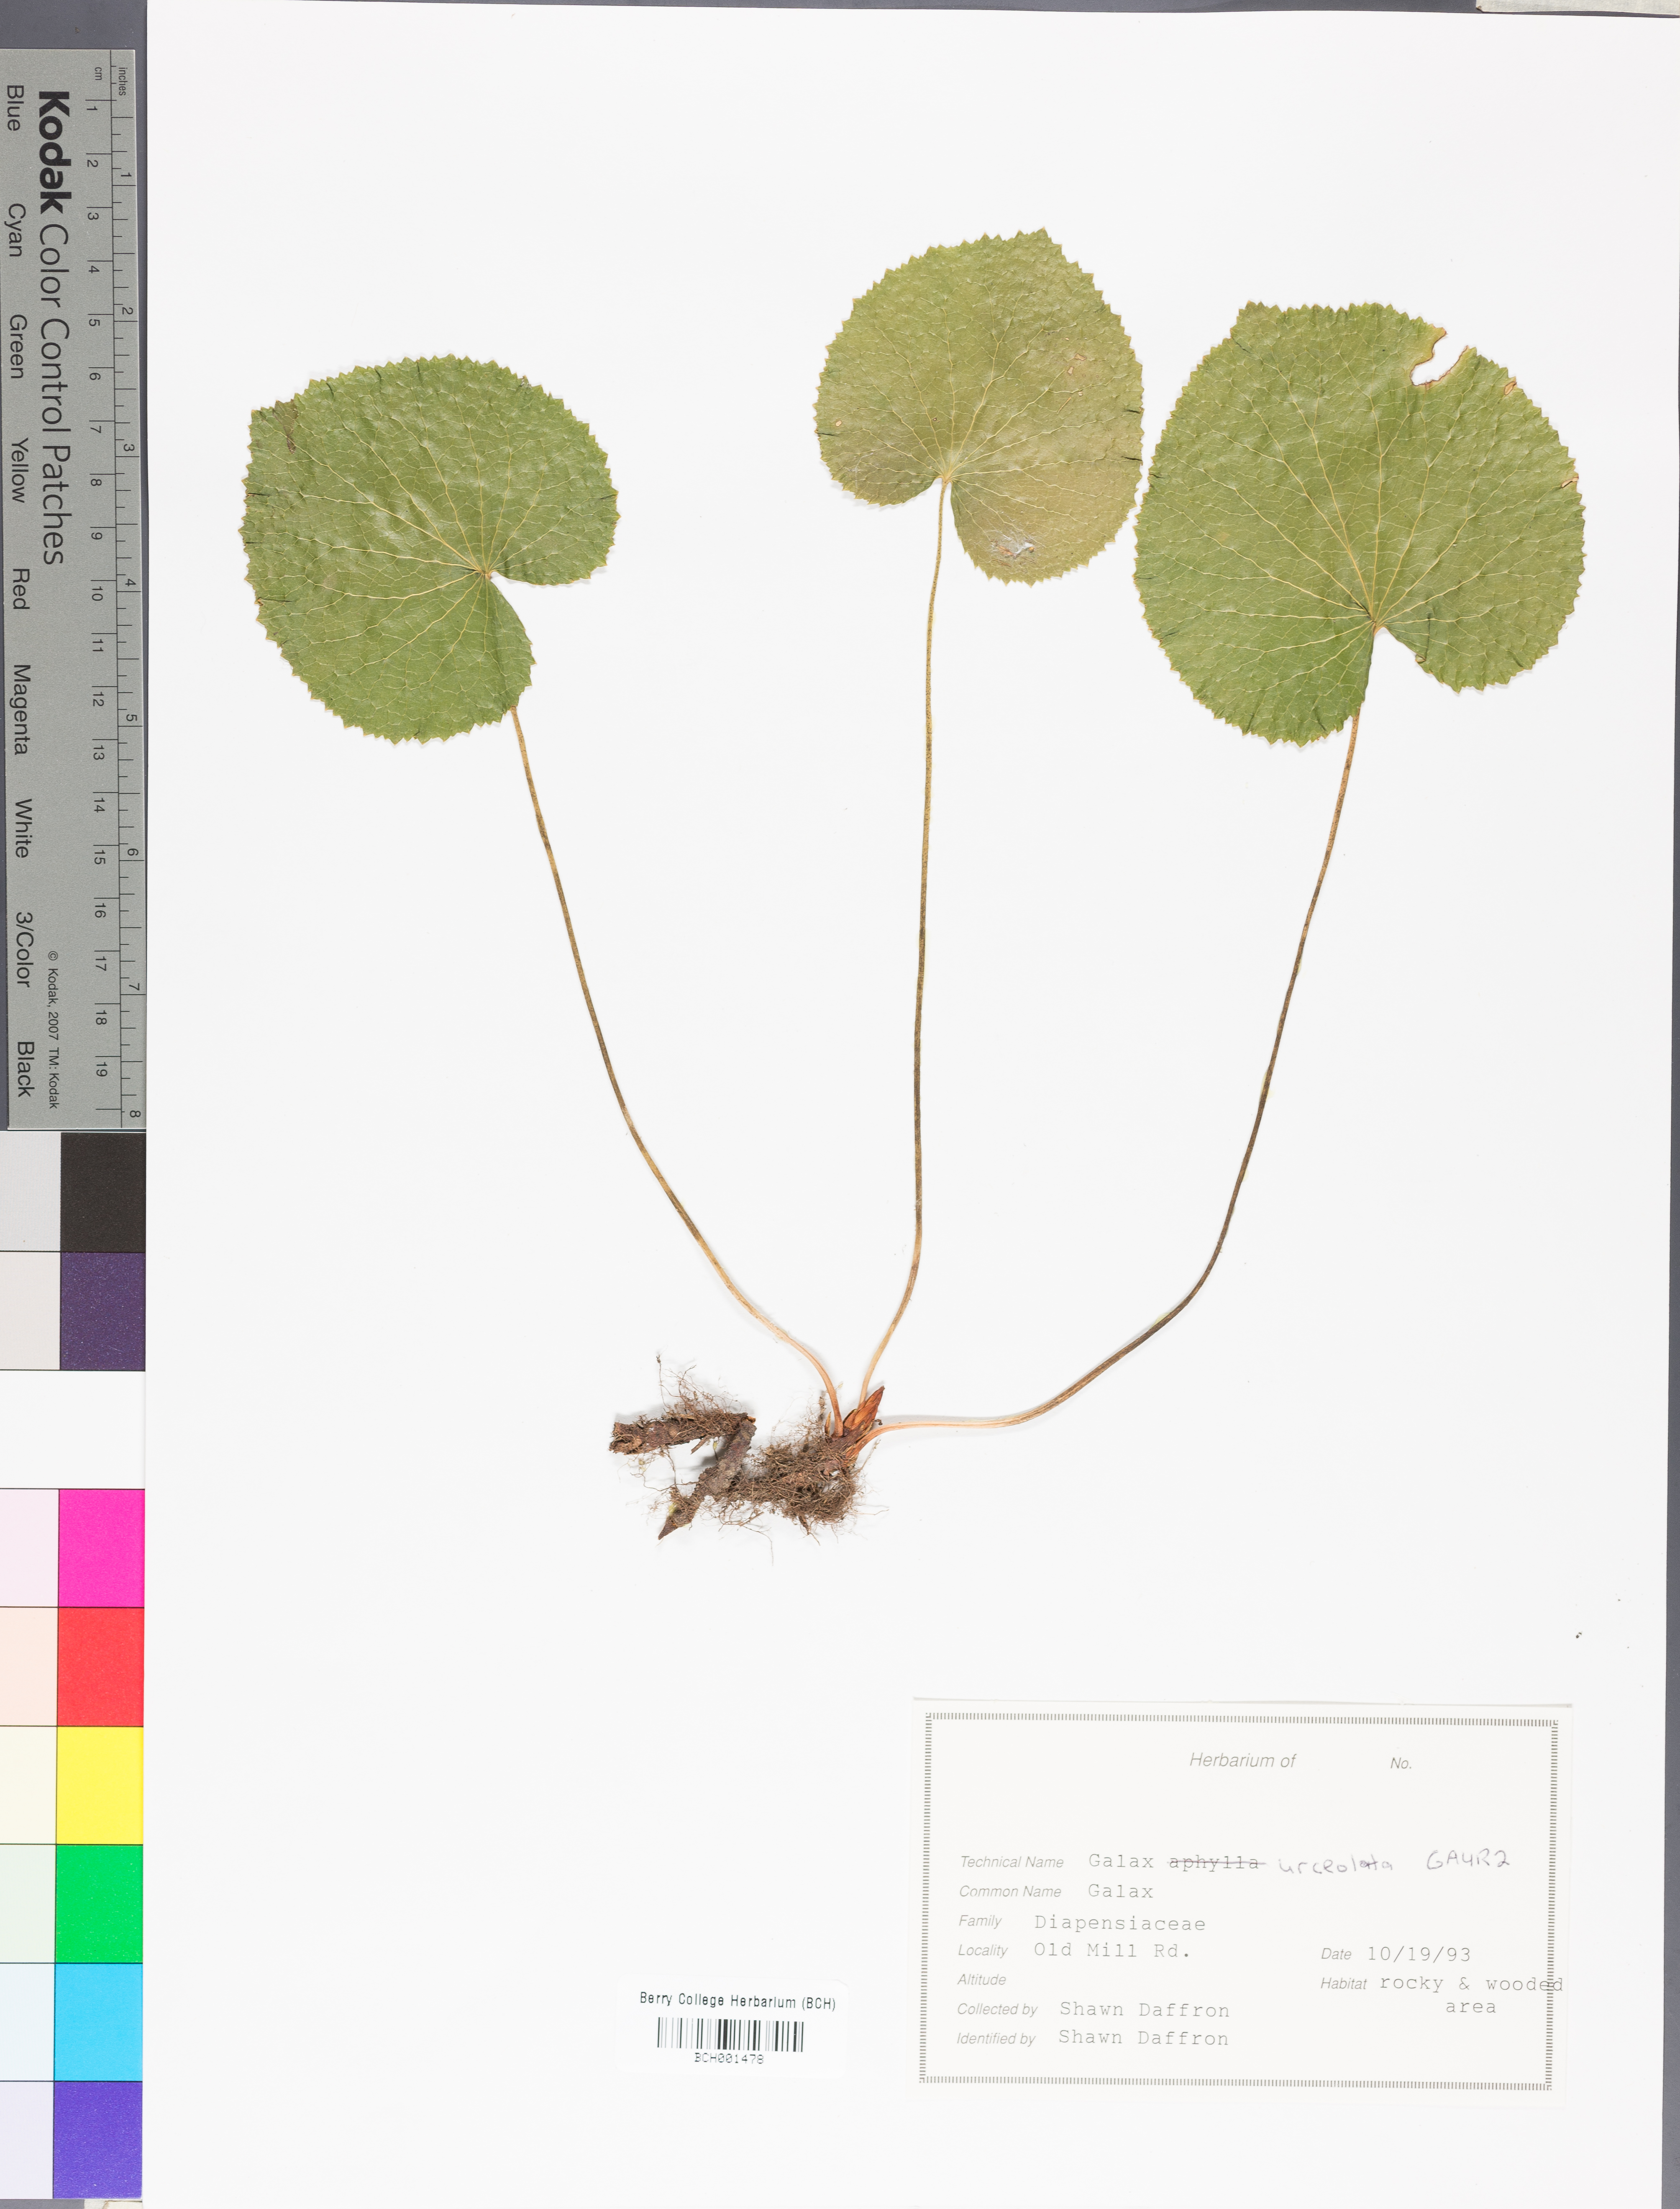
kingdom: Plantae
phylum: Tracheophyta
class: Magnoliopsida
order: Ericales
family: Diapensiaceae
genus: Galax
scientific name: Galax urceolata
